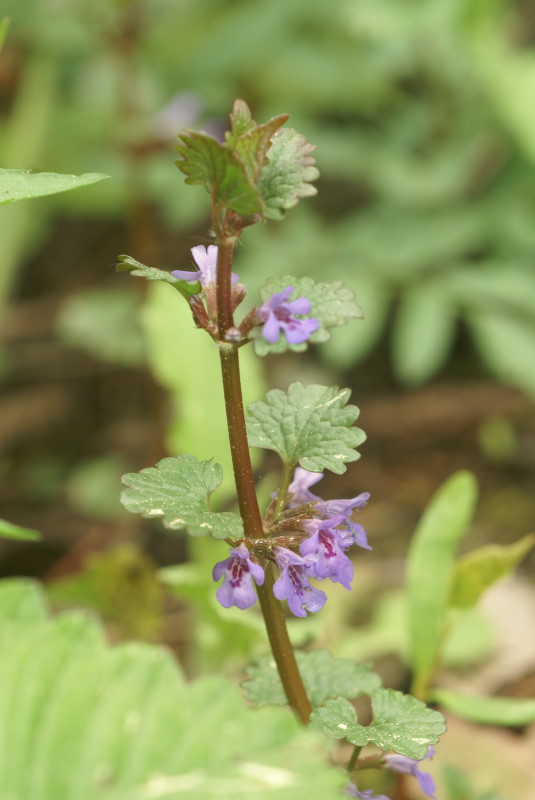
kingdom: Plantae
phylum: Tracheophyta
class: Magnoliopsida
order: Lamiales
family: Lamiaceae
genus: Glechoma
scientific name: Glechoma hederacea
